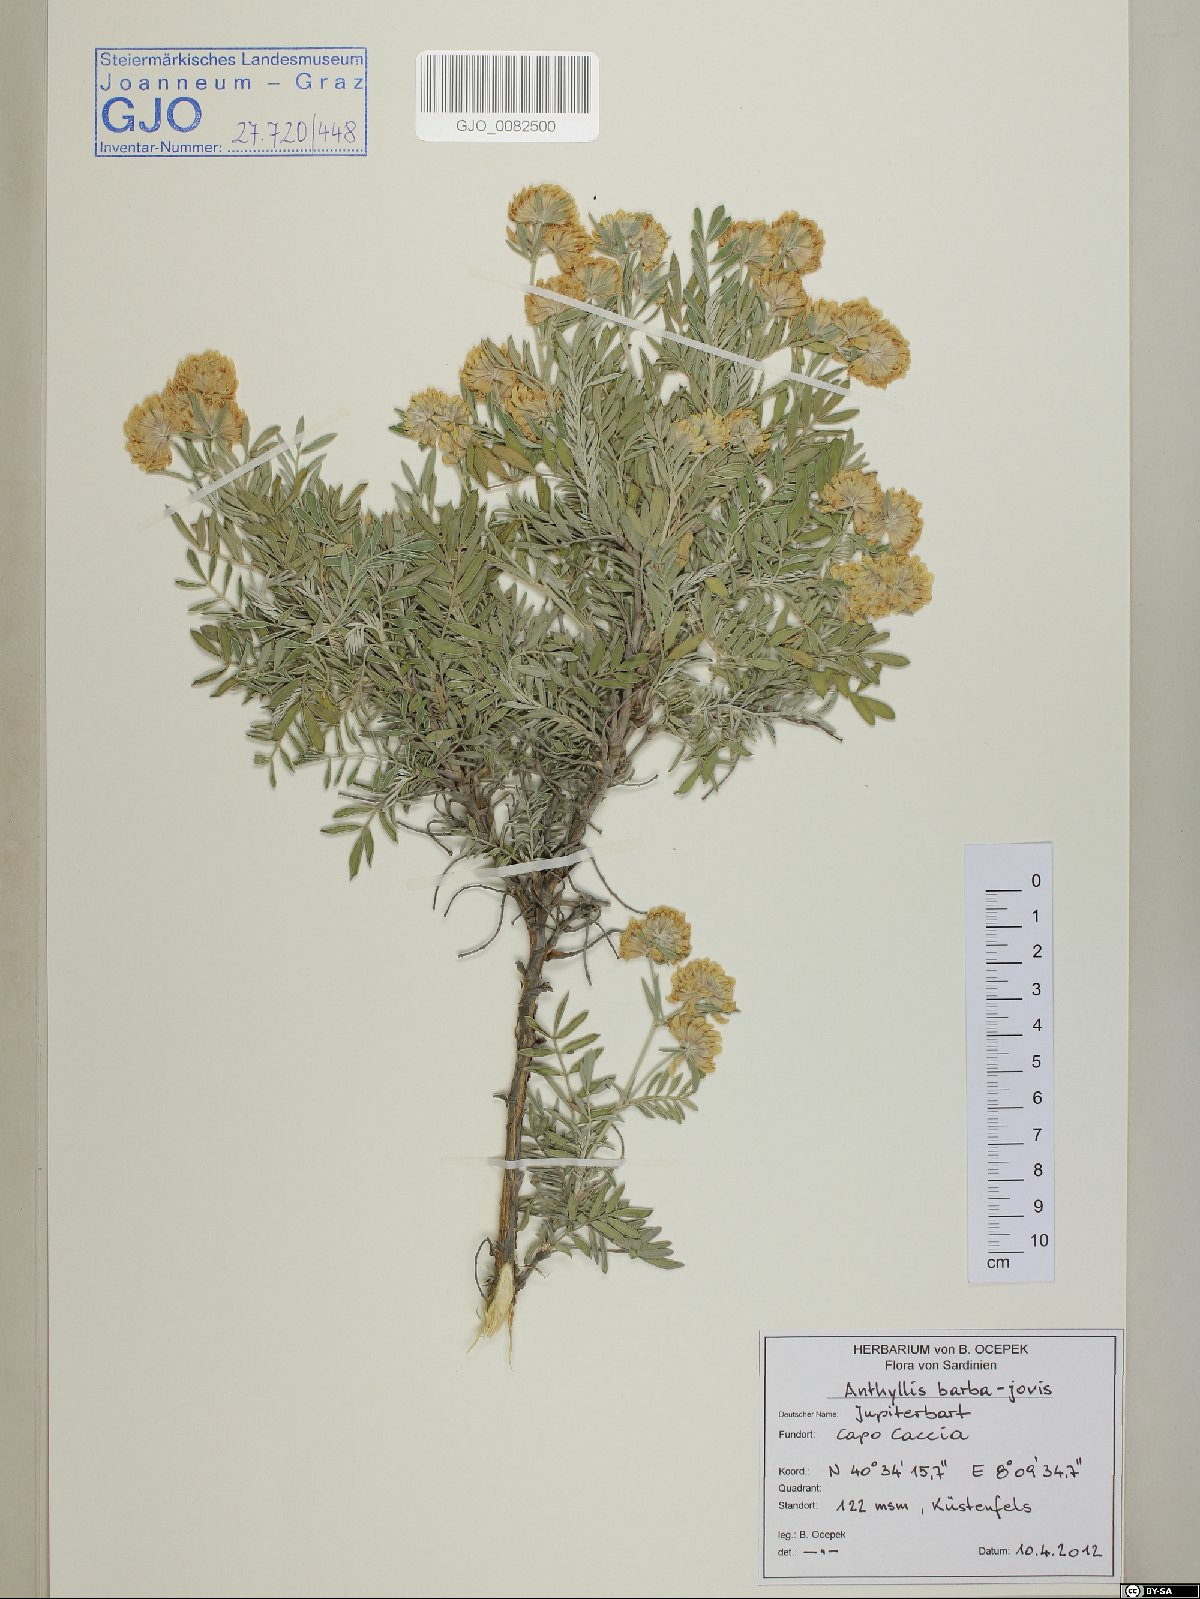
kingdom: Plantae
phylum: Tracheophyta
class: Magnoliopsida
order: Fabales
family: Fabaceae
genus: Anthyllis
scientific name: Anthyllis barba-jovis
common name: Jupiter's-beard
